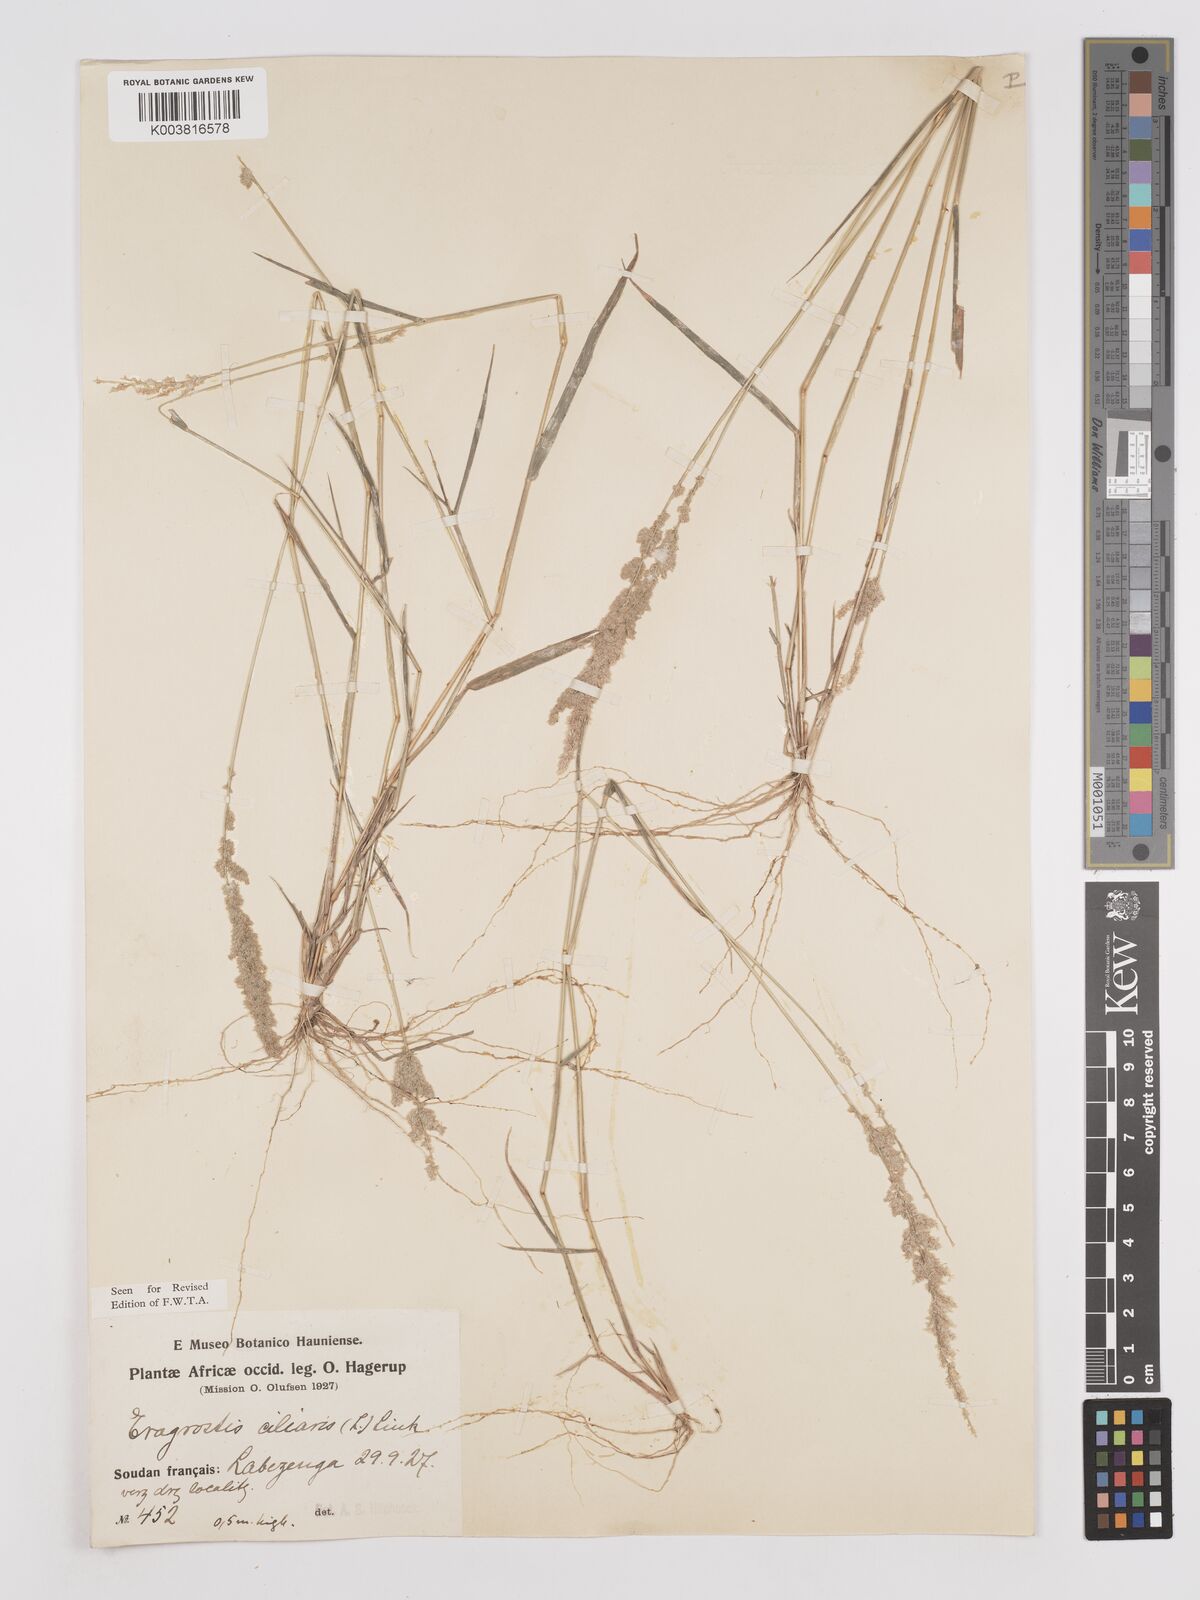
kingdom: Plantae
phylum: Tracheophyta
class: Liliopsida
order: Poales
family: Poaceae
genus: Eragrostis
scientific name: Eragrostis ciliaris
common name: Gophertail lovegrass
